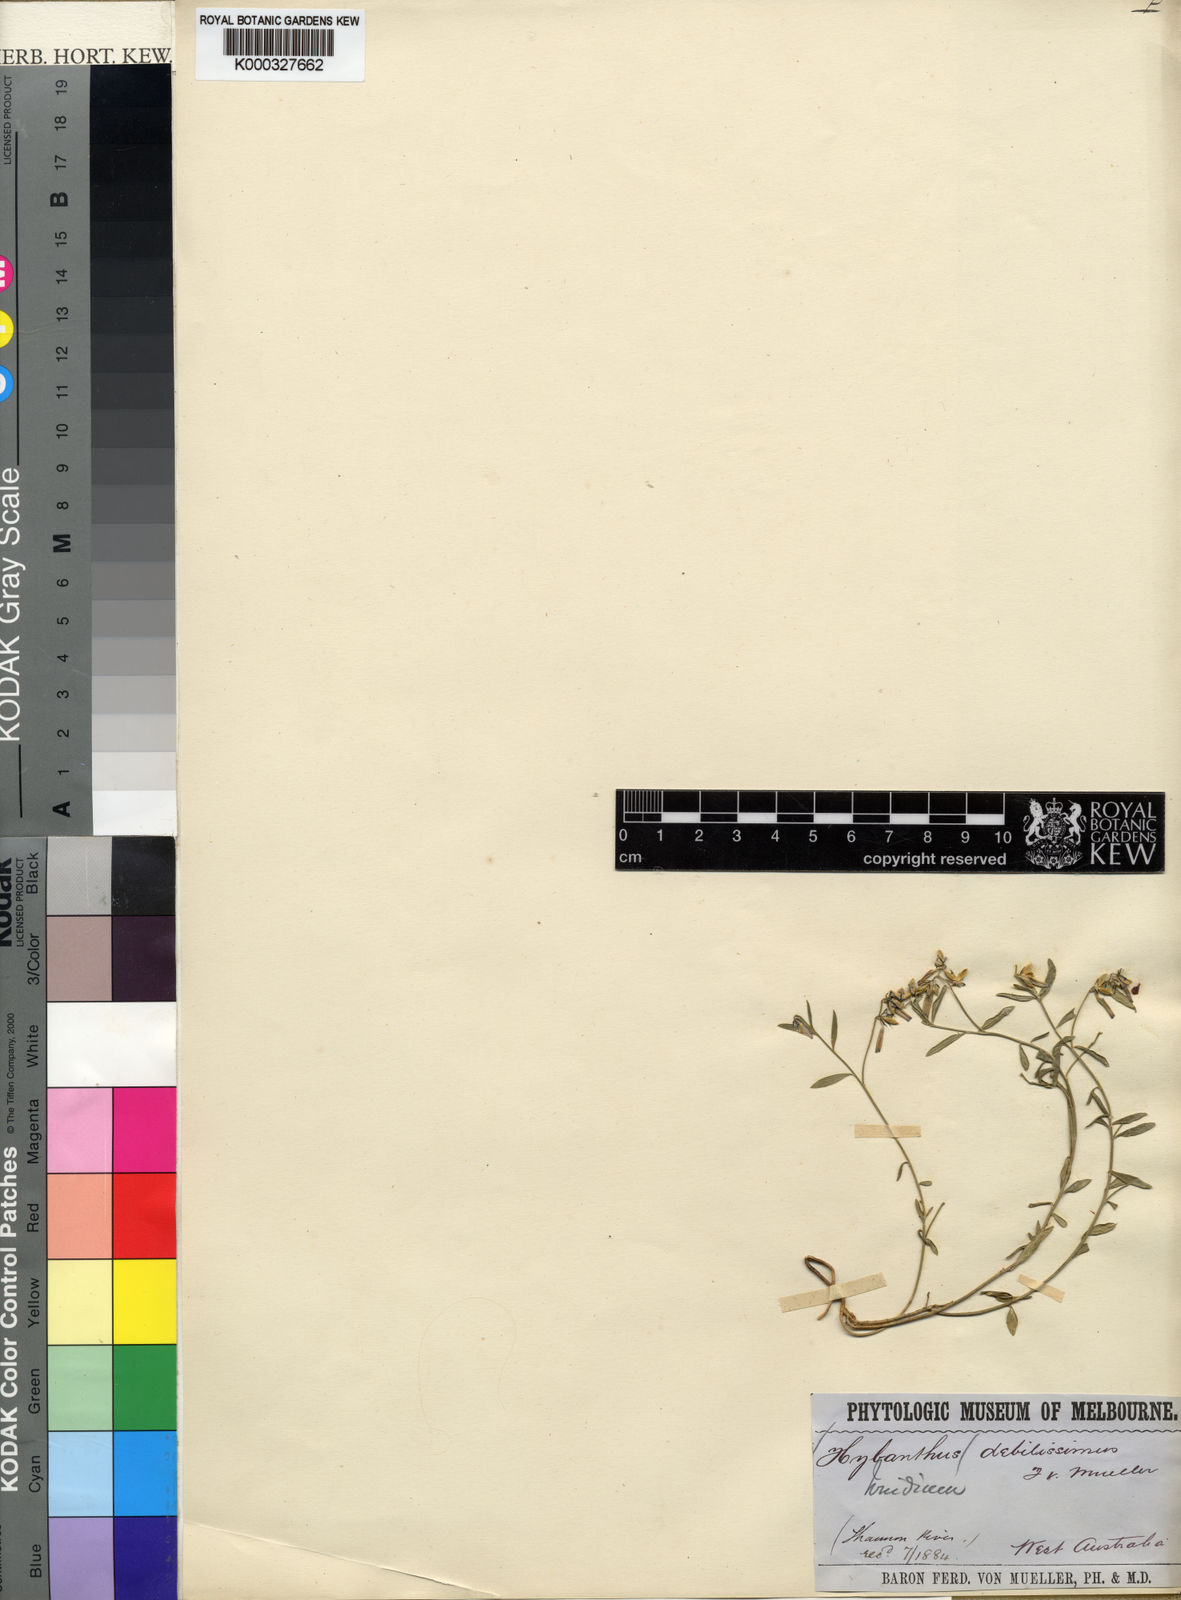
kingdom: Plantae
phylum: Tracheophyta
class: Magnoliopsida
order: Malpighiales
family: Violaceae
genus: Pigea
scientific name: Pigea debilissima
